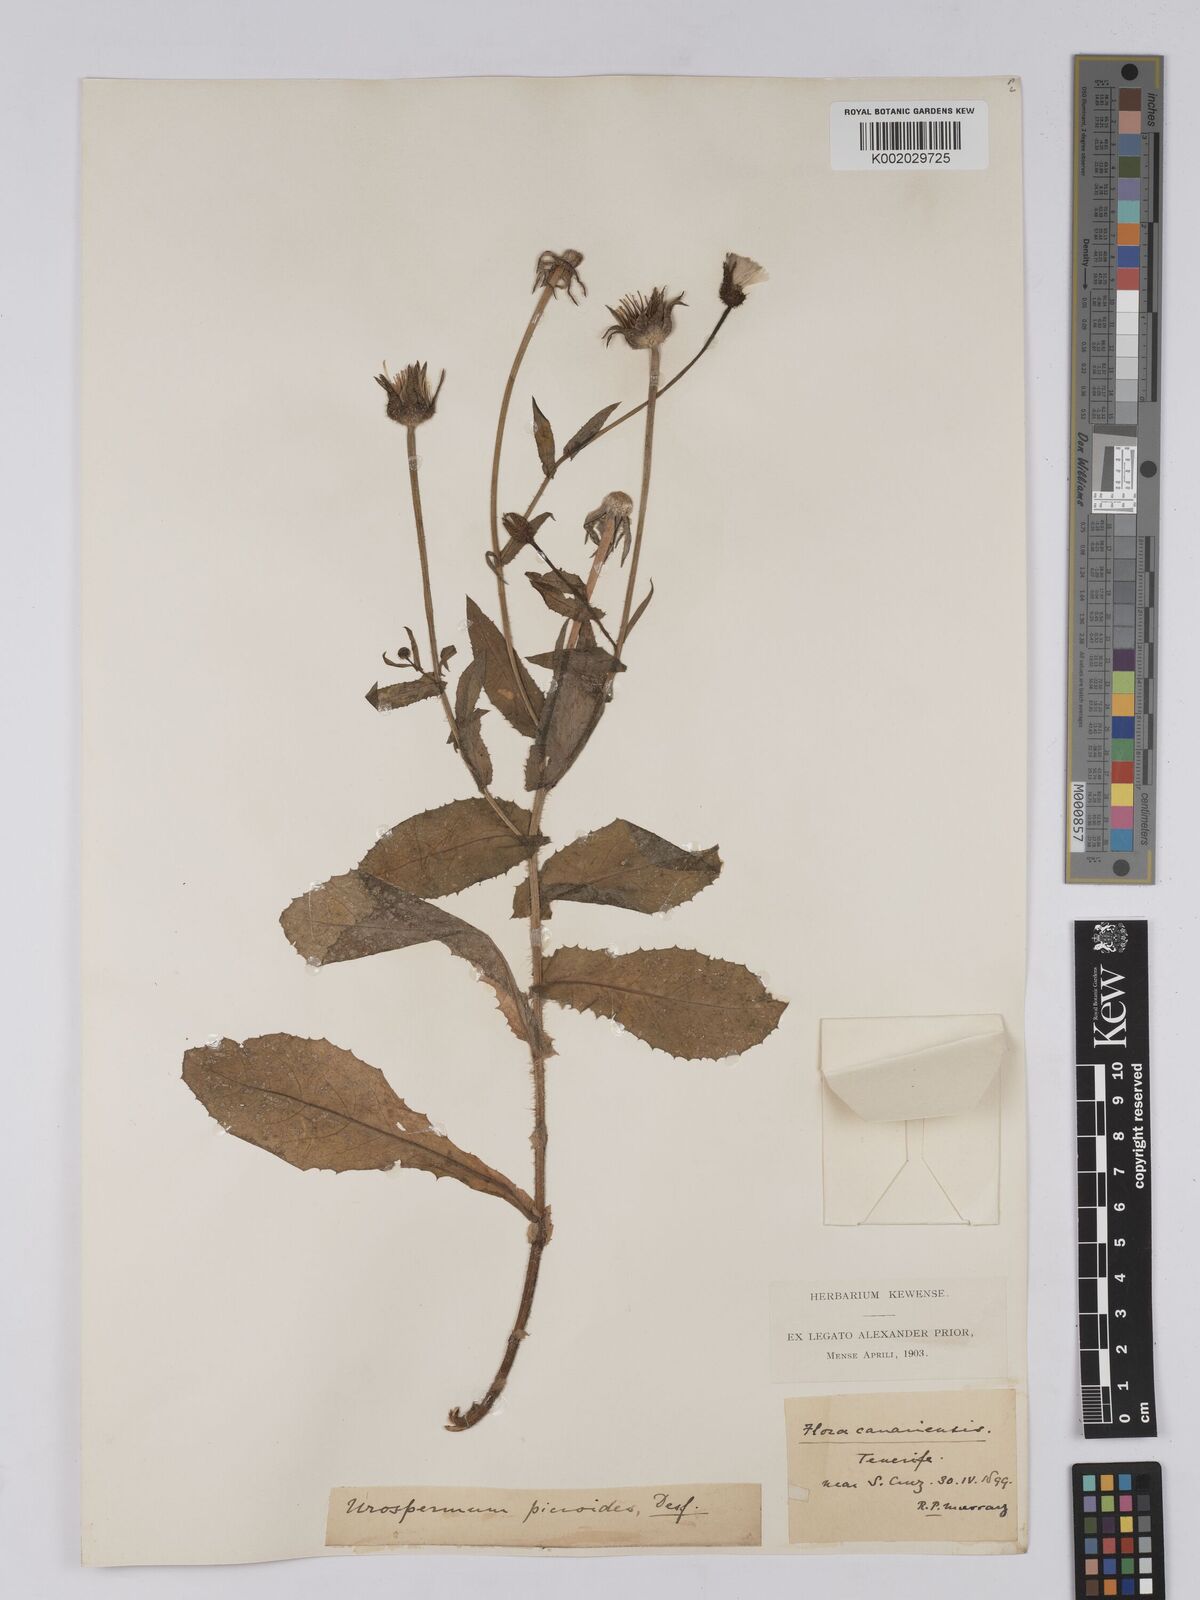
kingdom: Plantae
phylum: Tracheophyta
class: Magnoliopsida
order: Asterales
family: Asteraceae
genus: Urospermum
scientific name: Urospermum picroides
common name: False hawkbit
